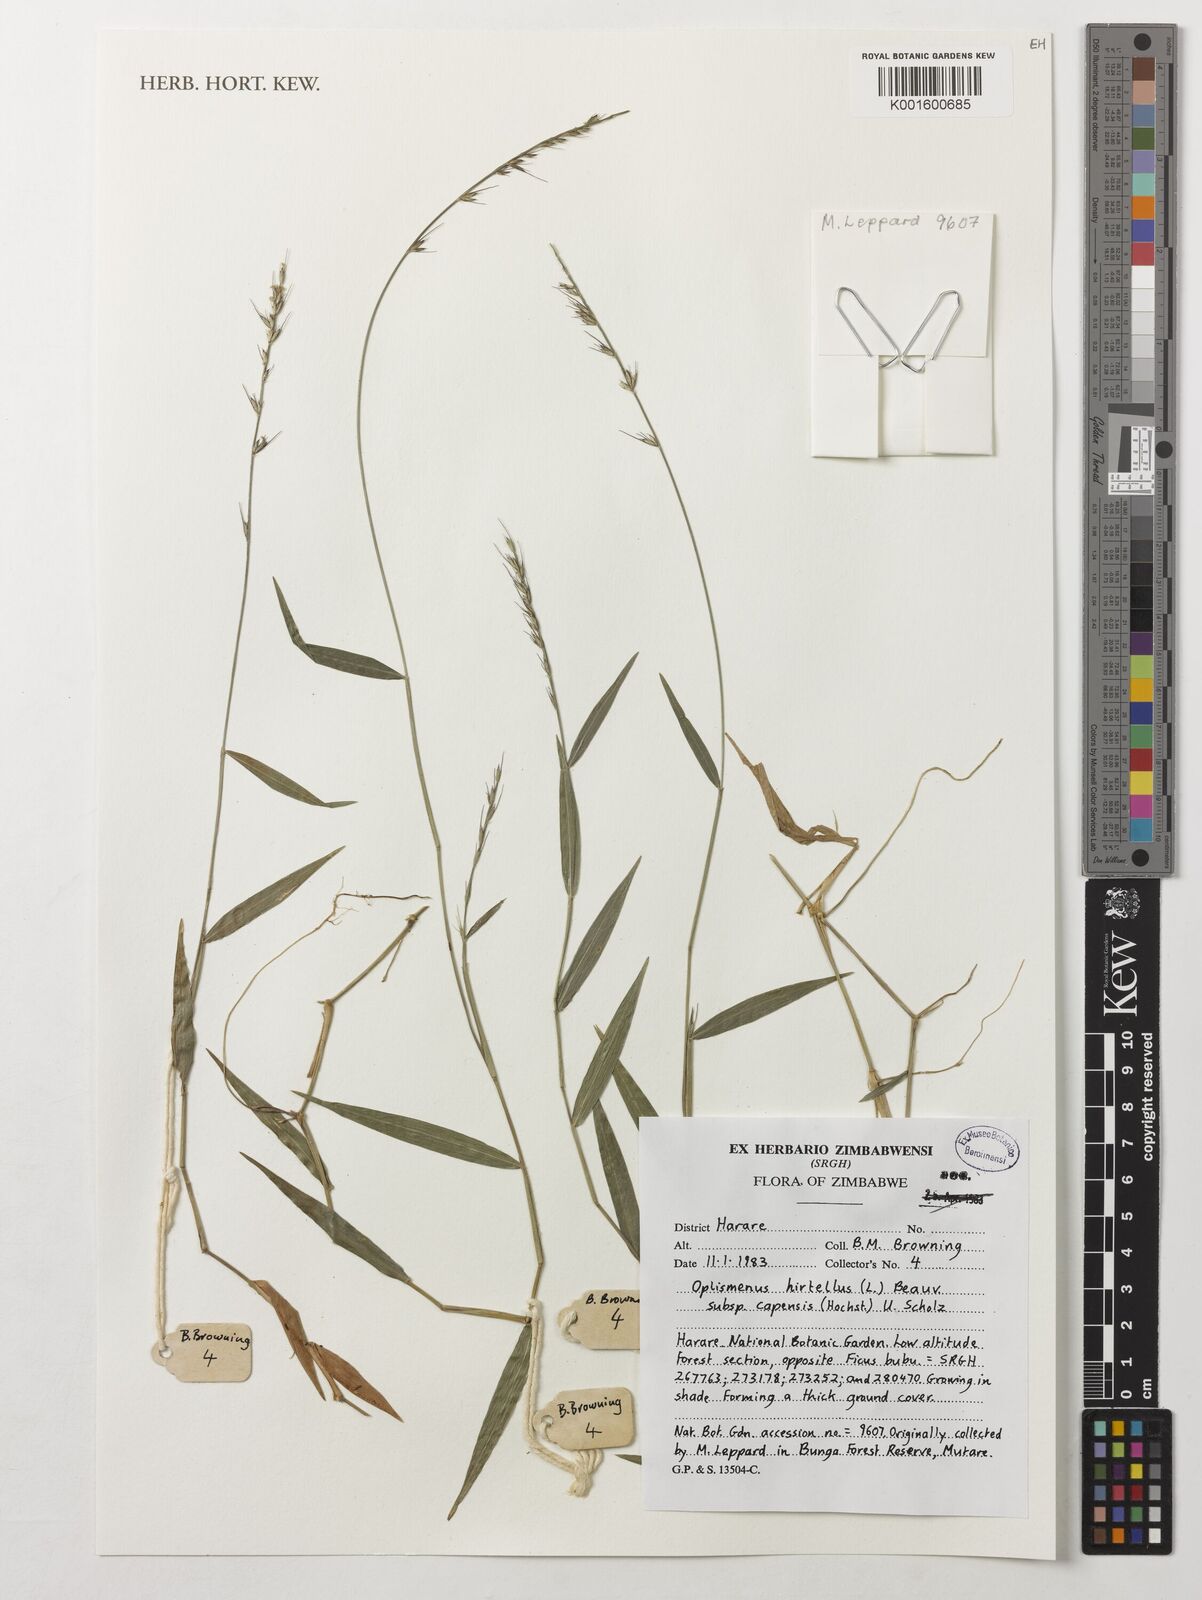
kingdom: Plantae
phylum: Tracheophyta
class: Liliopsida
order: Poales
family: Poaceae
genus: Oplismenus
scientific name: Oplismenus hirtellus
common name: Basketgrass
